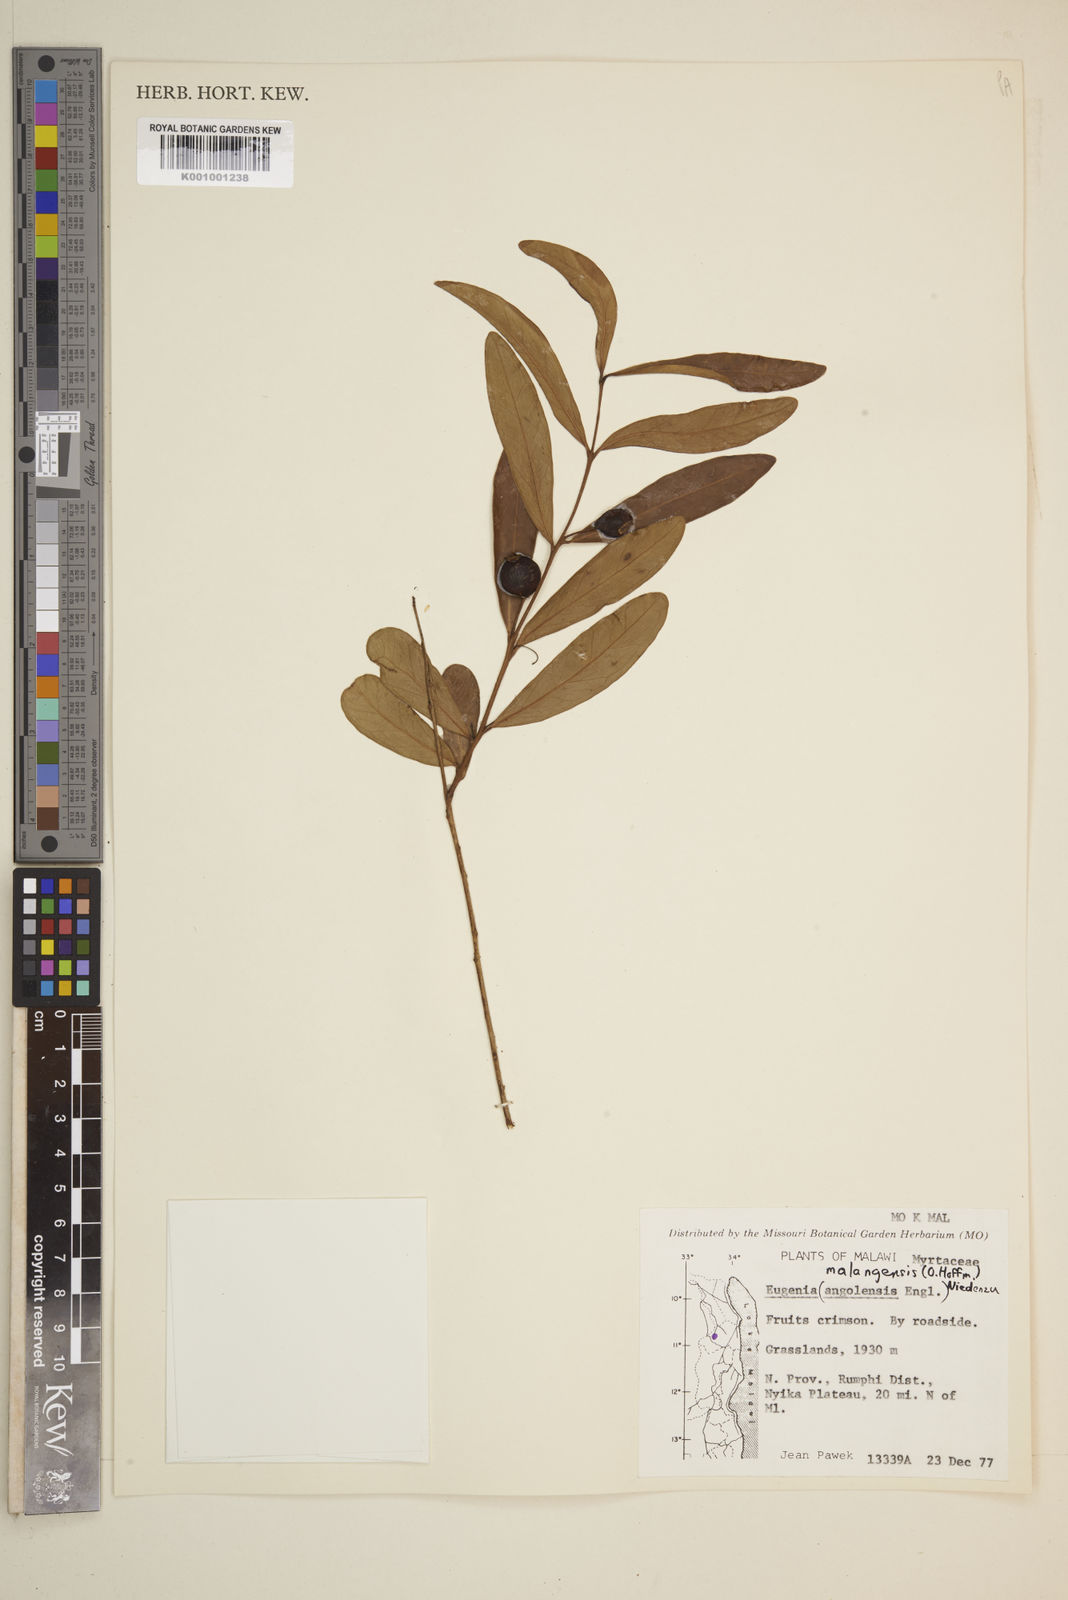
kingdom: Plantae
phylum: Tracheophyta
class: Magnoliopsida
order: Myrtales
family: Myrtaceae
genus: Eugenia
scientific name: Eugenia malangensis
